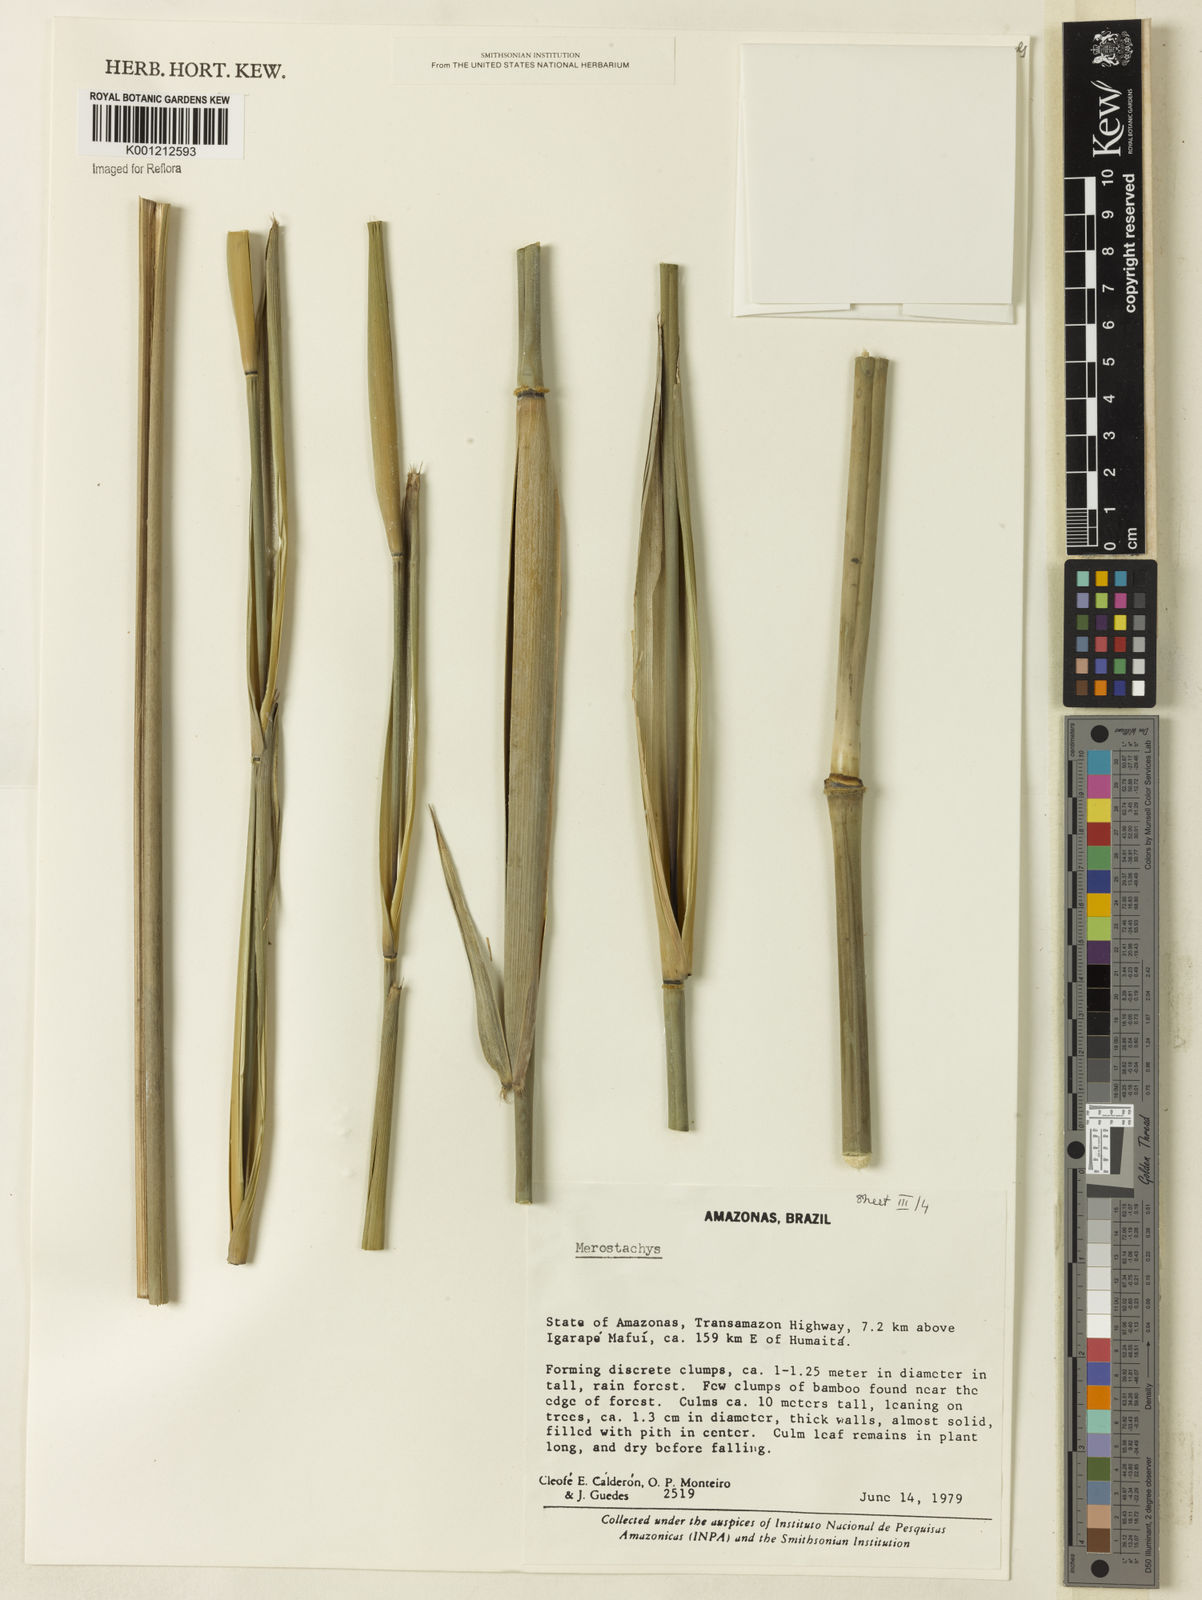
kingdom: Plantae
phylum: Tracheophyta
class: Liliopsida
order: Poales
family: Poaceae
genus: Merostachys
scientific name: Merostachys
